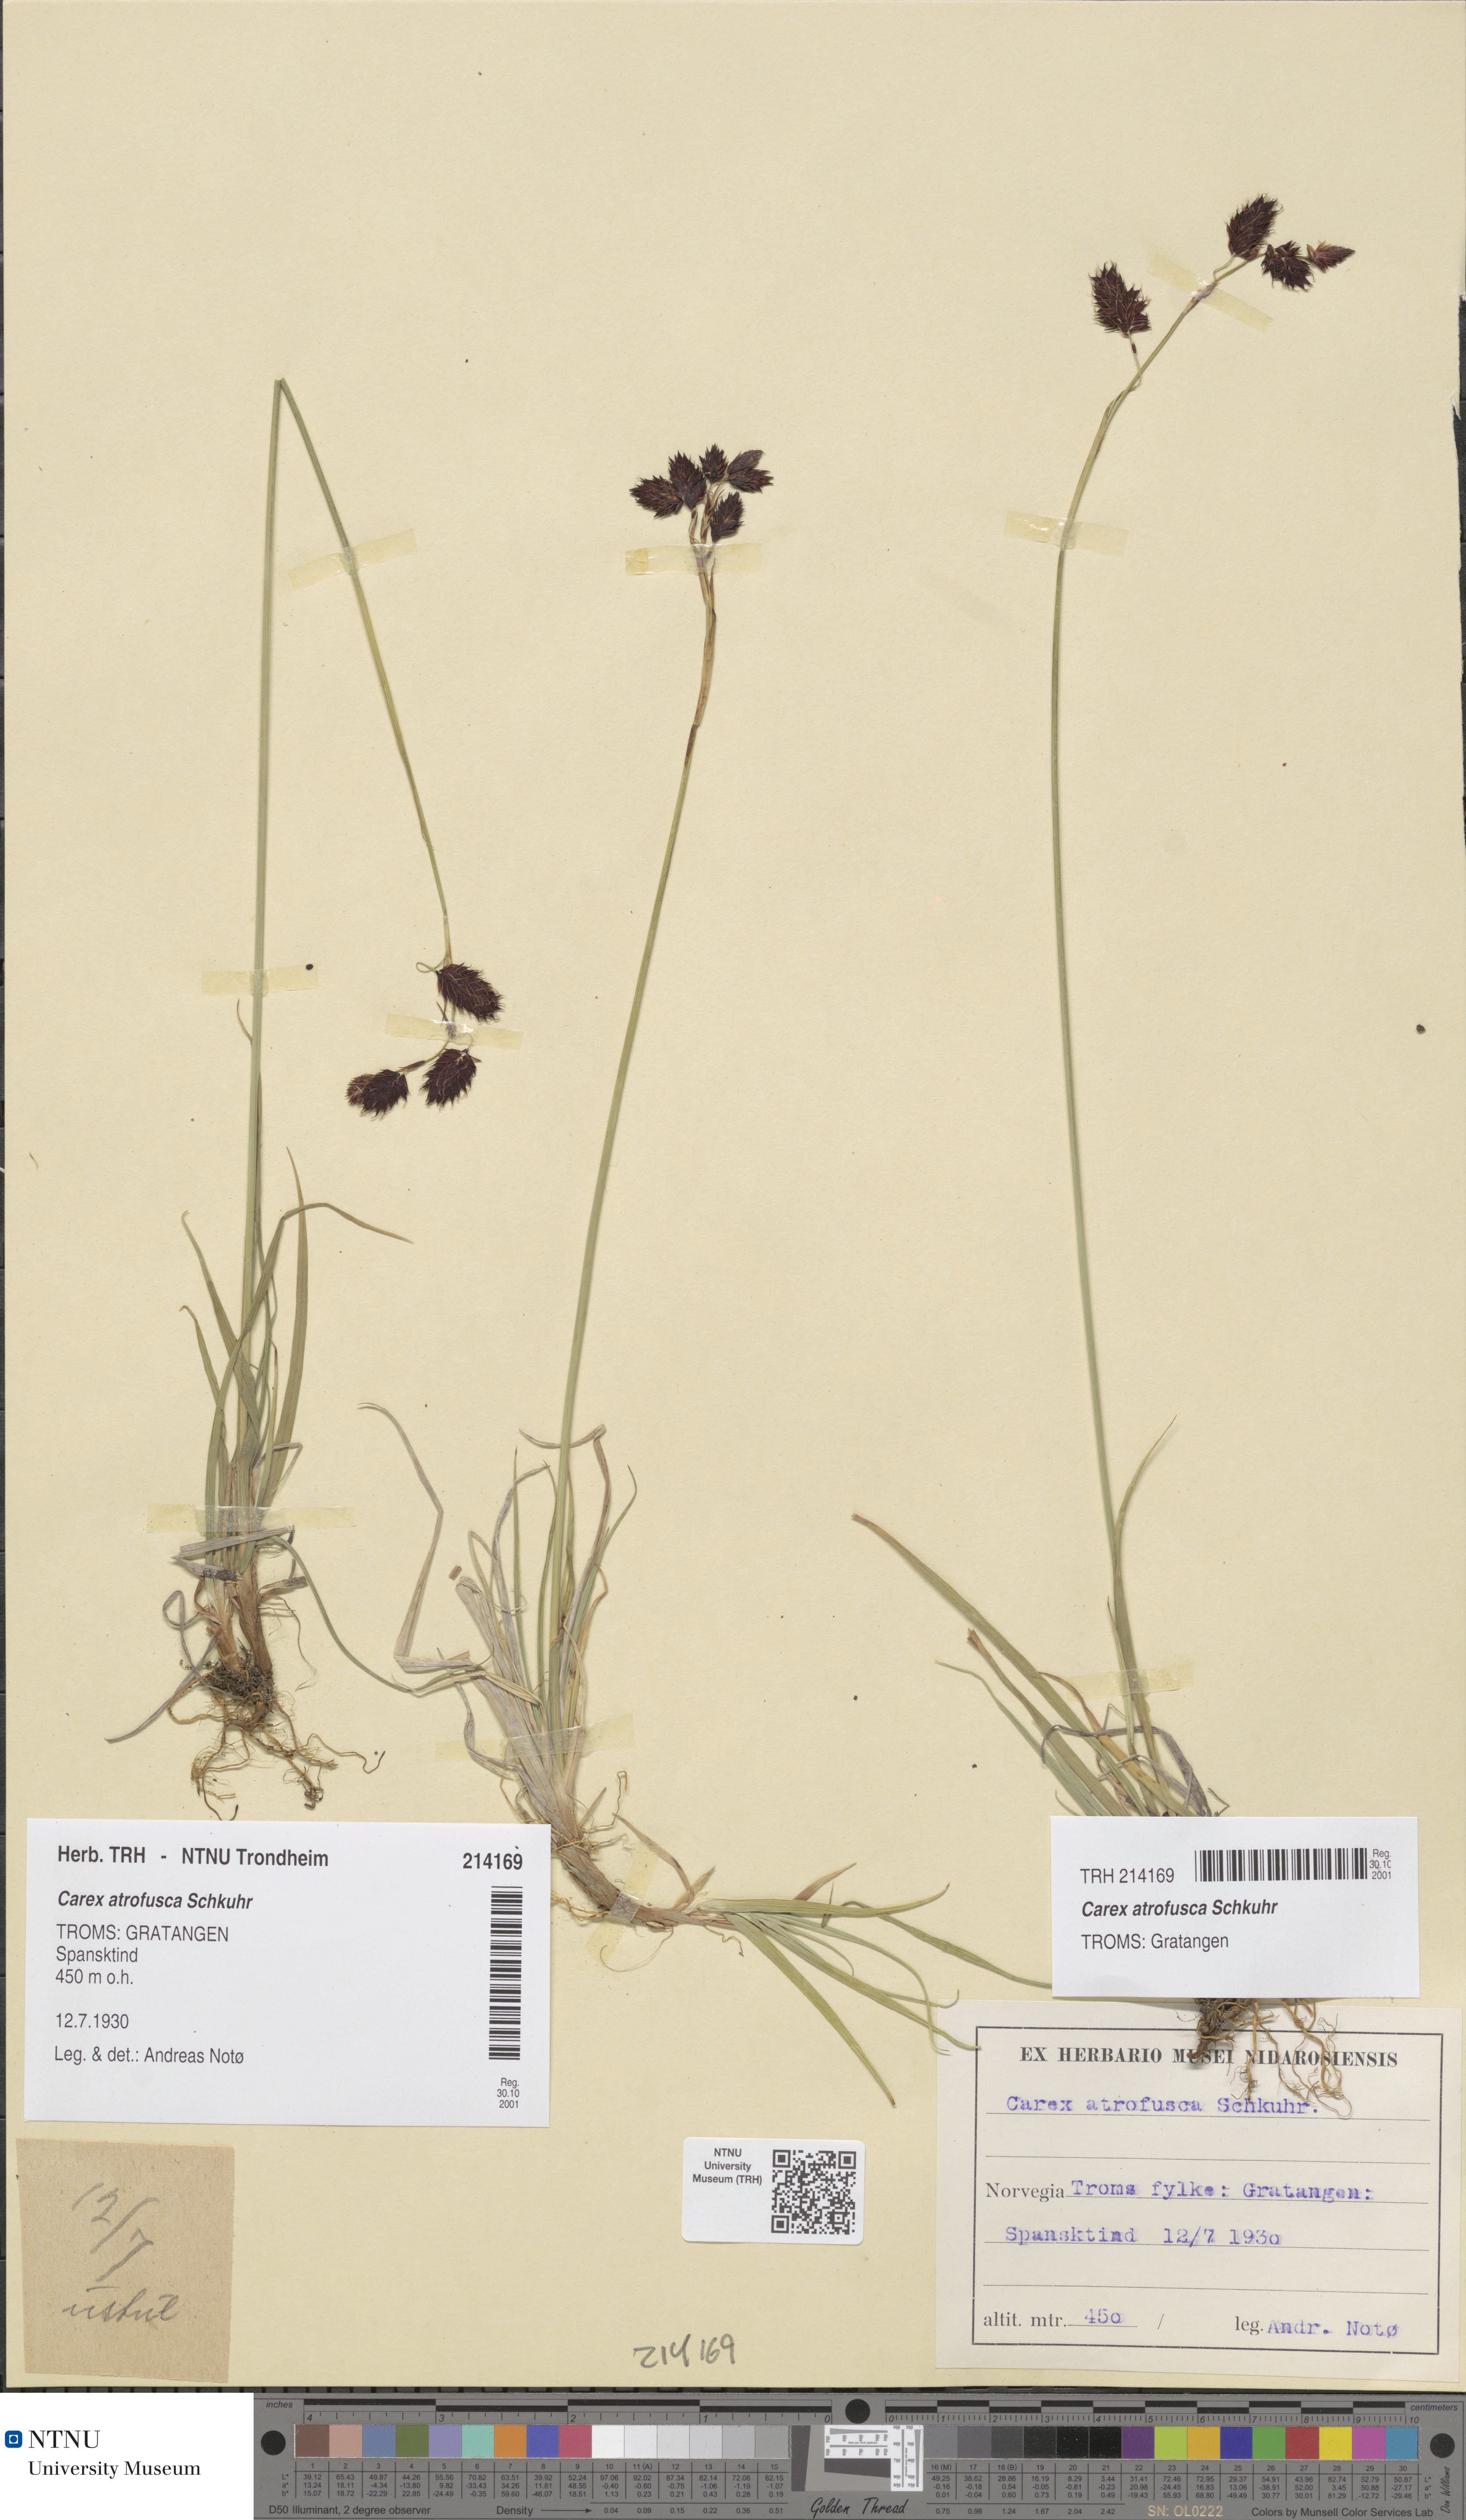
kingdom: Plantae
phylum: Tracheophyta
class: Liliopsida
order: Poales
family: Cyperaceae
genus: Carex
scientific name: Carex atrofusca
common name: Scorched alpine-sedge
